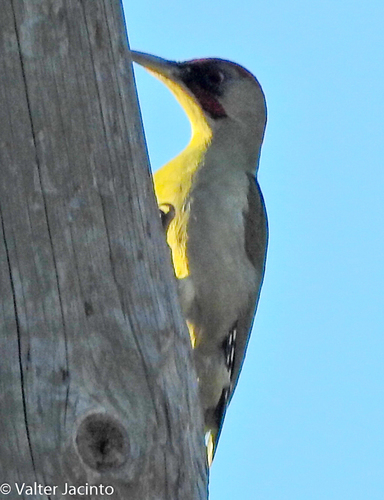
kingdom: Animalia
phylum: Chordata
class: Aves
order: Piciformes
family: Picidae
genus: Picus
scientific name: Picus sharpei
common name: Iberian green woodpecker
